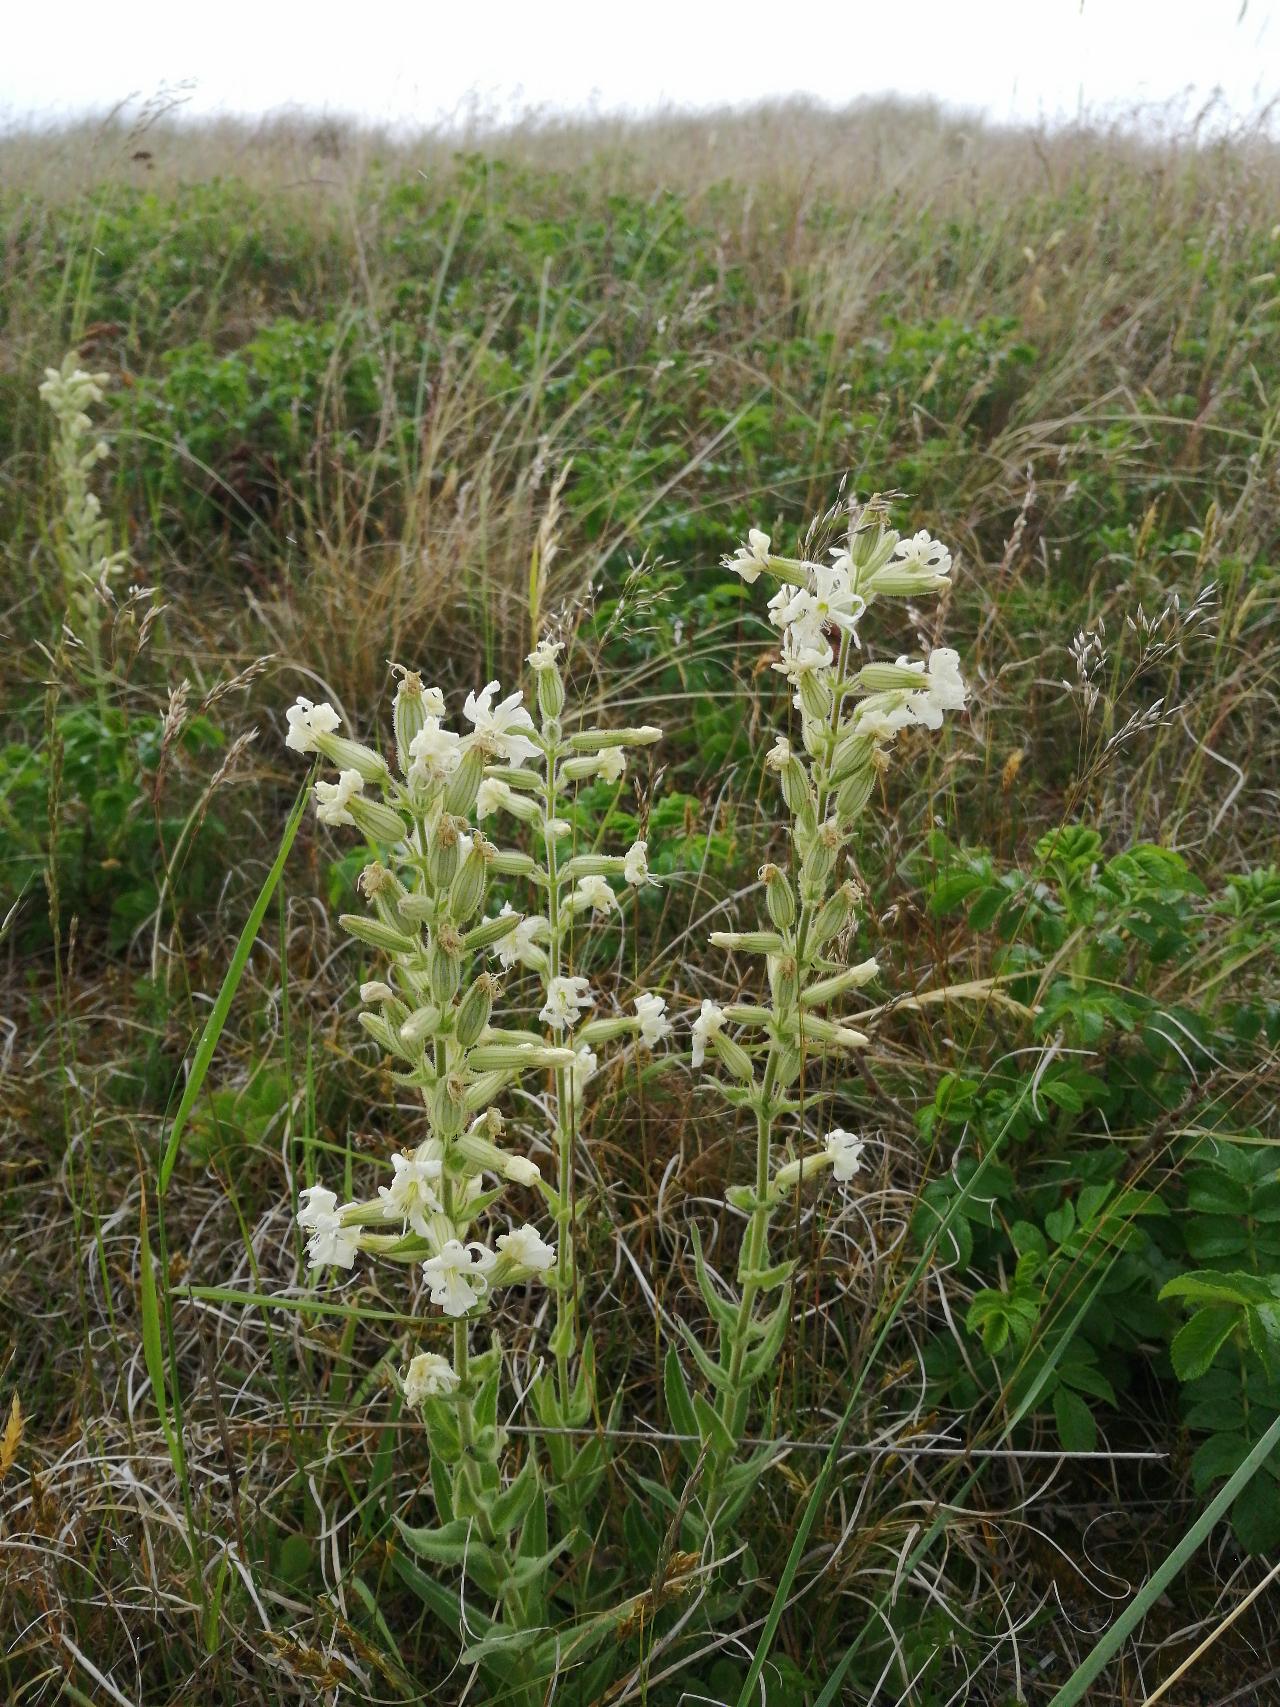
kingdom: Plantae
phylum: Tracheophyta
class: Magnoliopsida
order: Caryophyllales
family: Caryophyllaceae
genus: Silene
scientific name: Silene viscosa
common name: Klæbrig limurt
